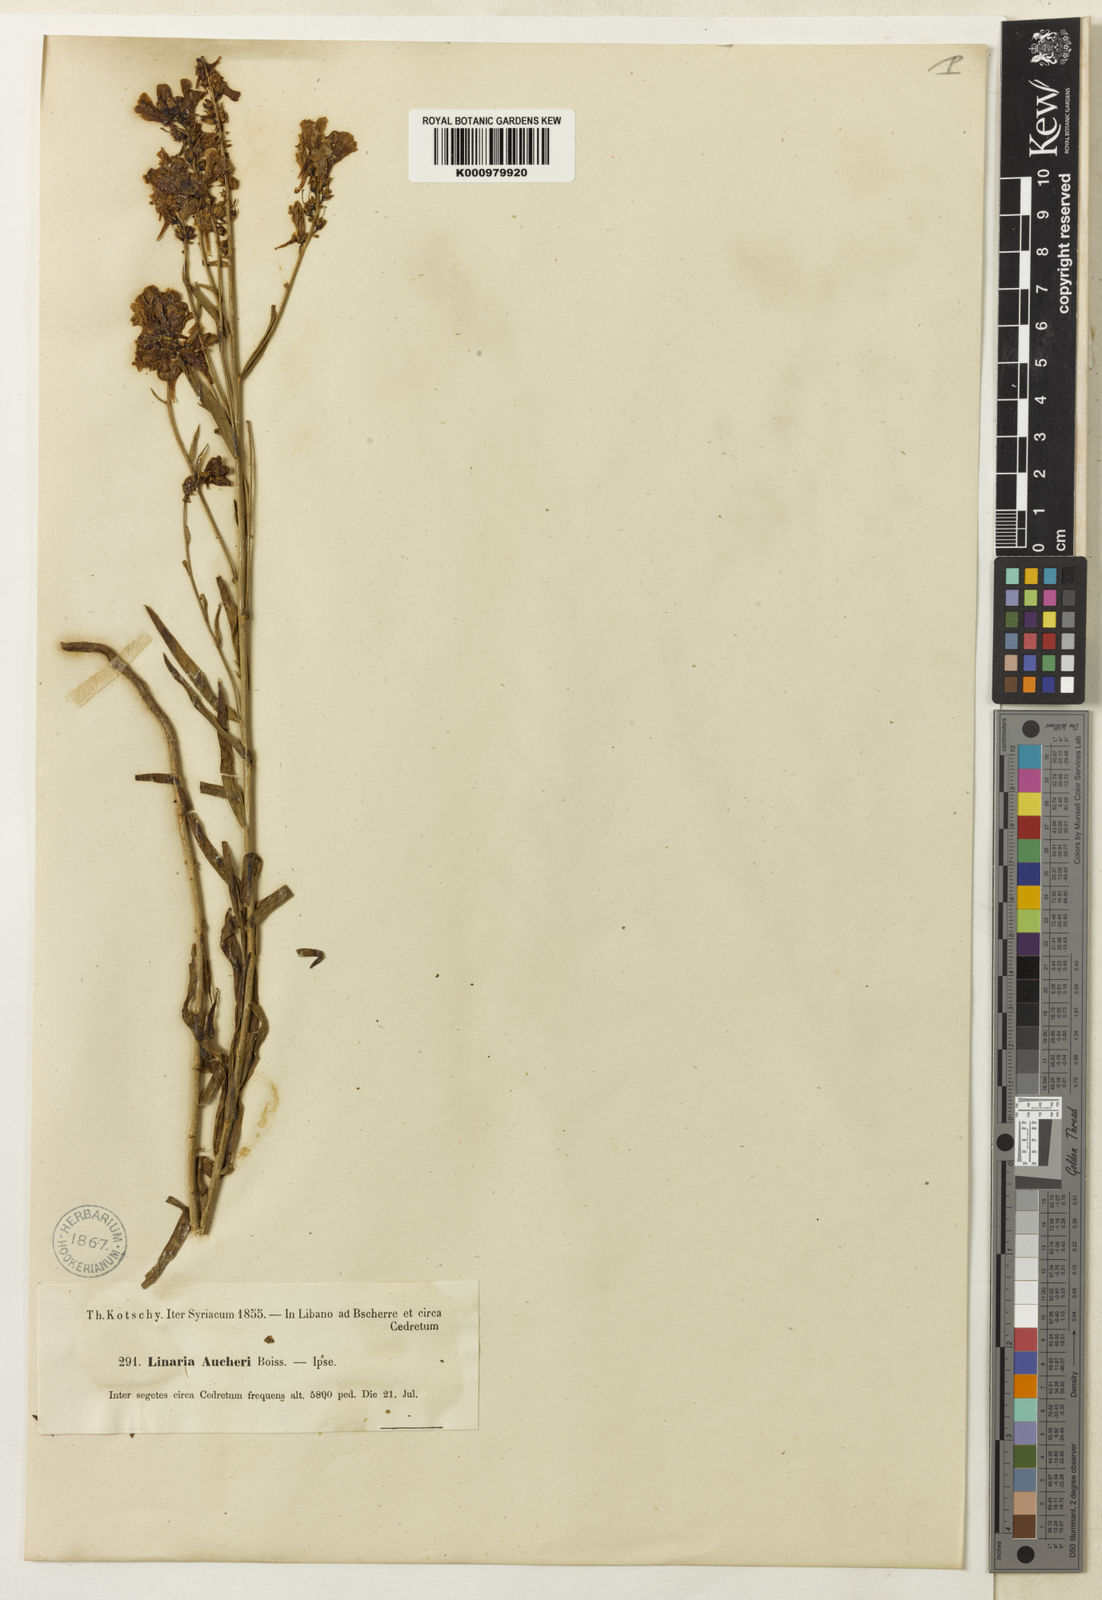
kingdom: Plantae
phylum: Tracheophyta
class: Magnoliopsida
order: Lamiales
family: Plantaginaceae
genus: Linaria
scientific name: Linaria kurdica
